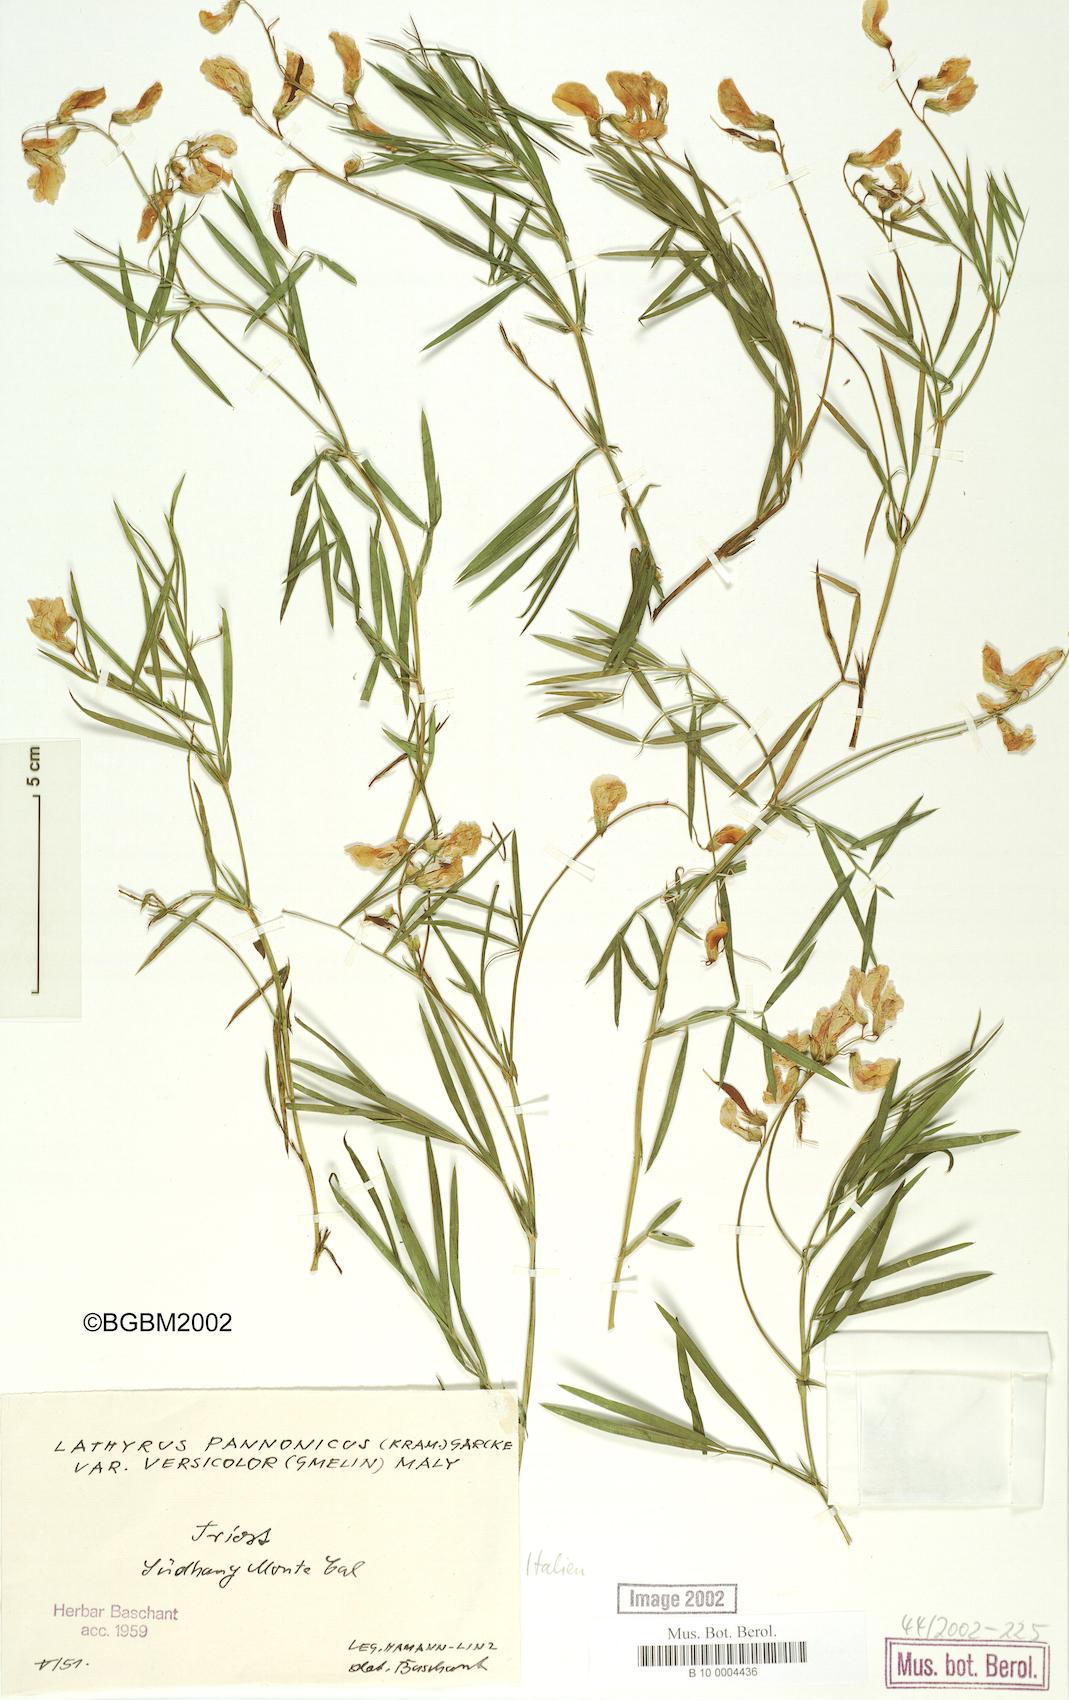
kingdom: Plantae
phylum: Tracheophyta
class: Magnoliopsida
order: Fabales
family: Fabaceae
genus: Lathyrus
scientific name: Lathyrus pannonicus
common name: Pea
